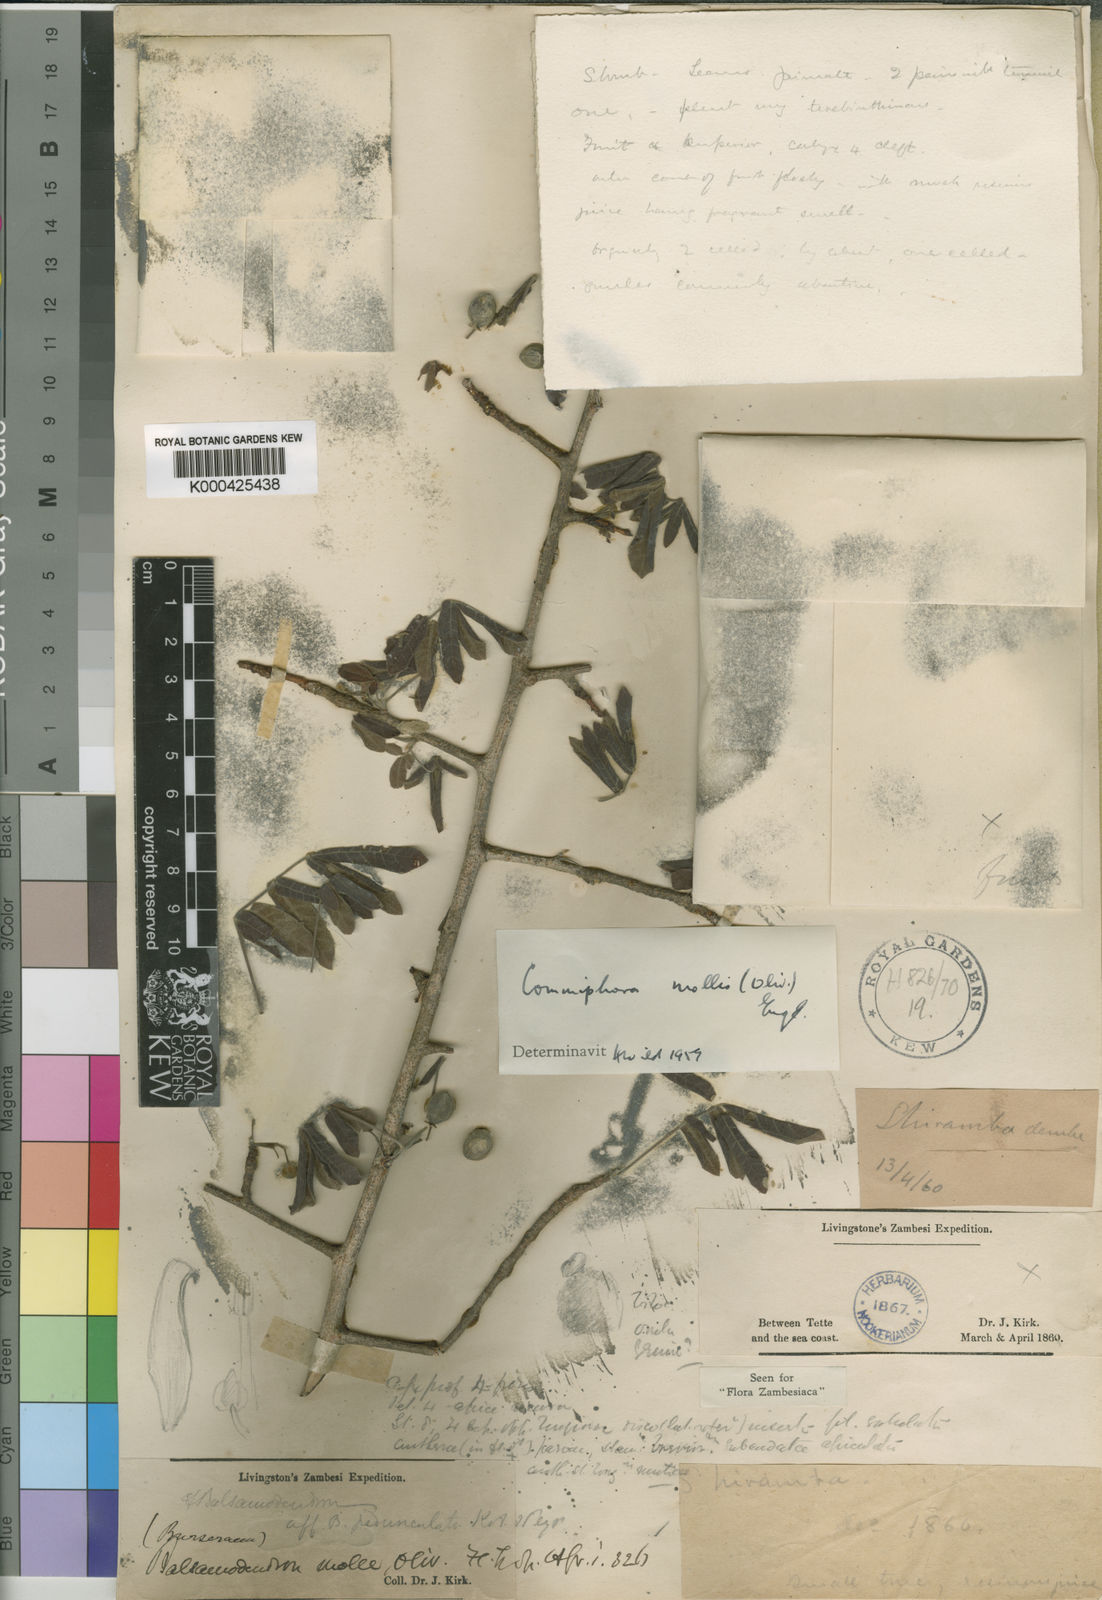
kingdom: Plantae
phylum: Tracheophyta
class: Magnoliopsida
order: Sapindales
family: Burseraceae
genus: Commiphora
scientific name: Commiphora mollis
